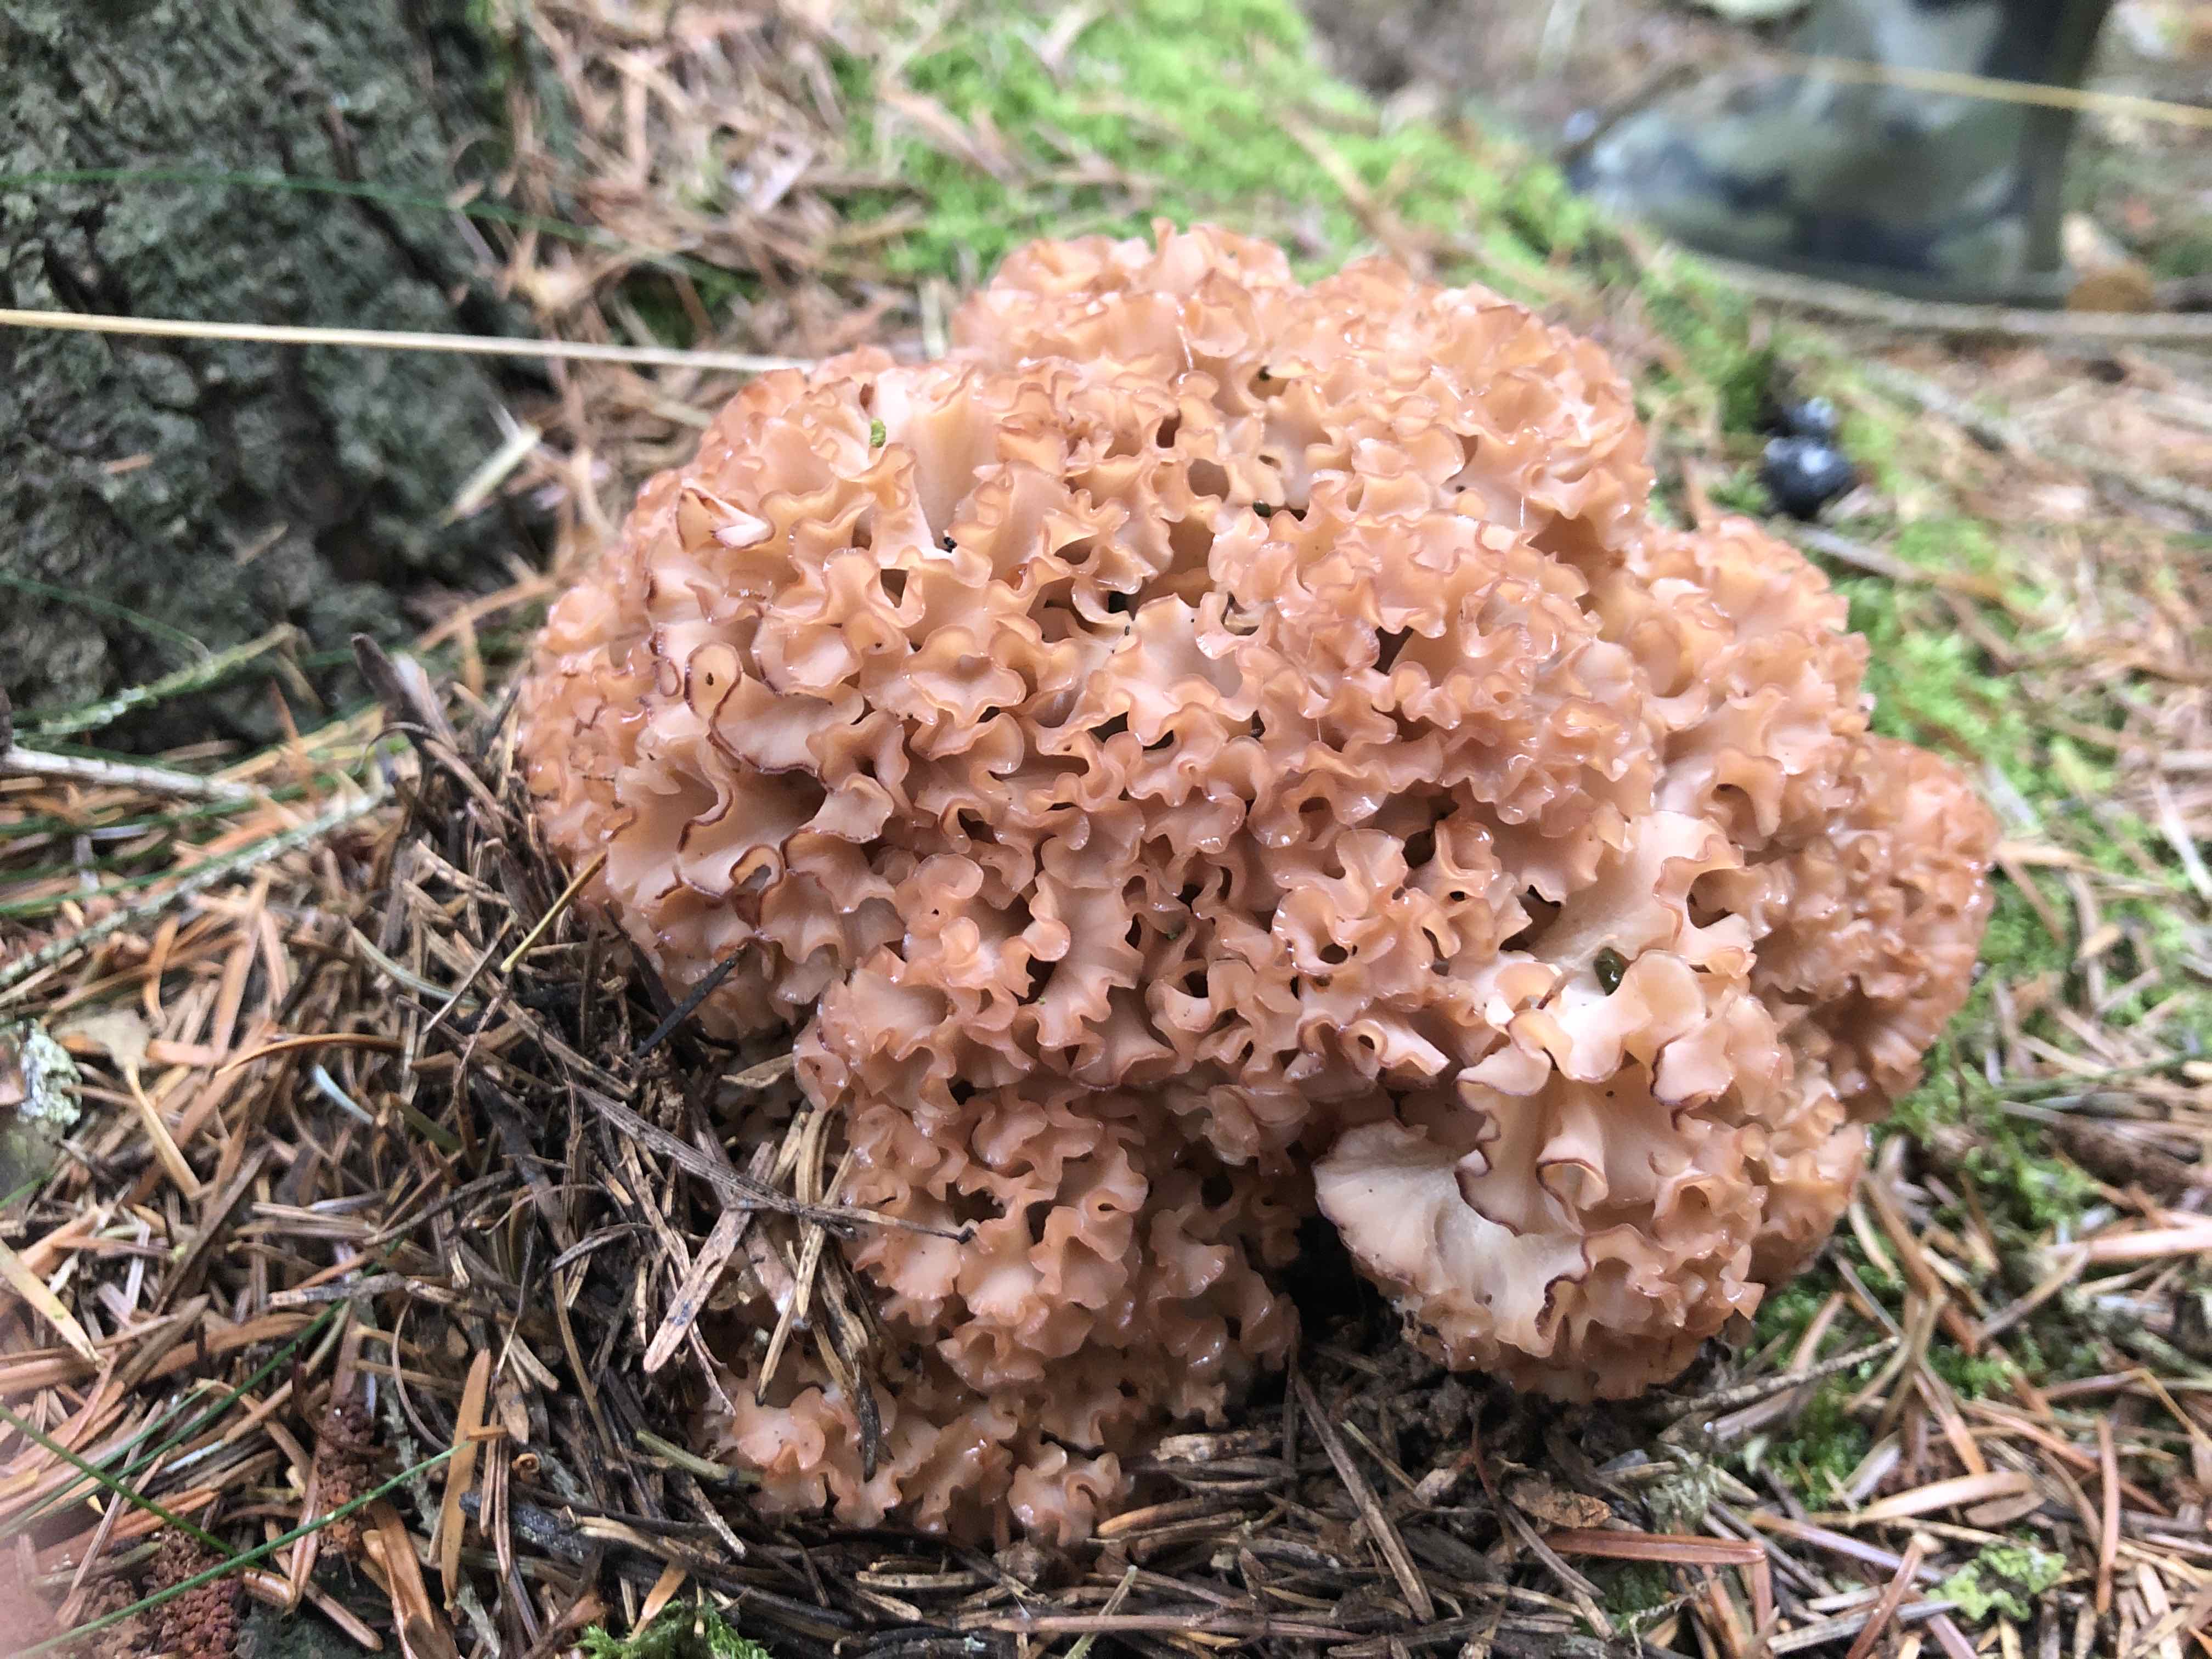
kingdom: Fungi
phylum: Basidiomycota
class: Agaricomycetes
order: Polyporales
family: Sparassidaceae
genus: Sparassis
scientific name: Sparassis crispa
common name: kruset blomkålssvamp
